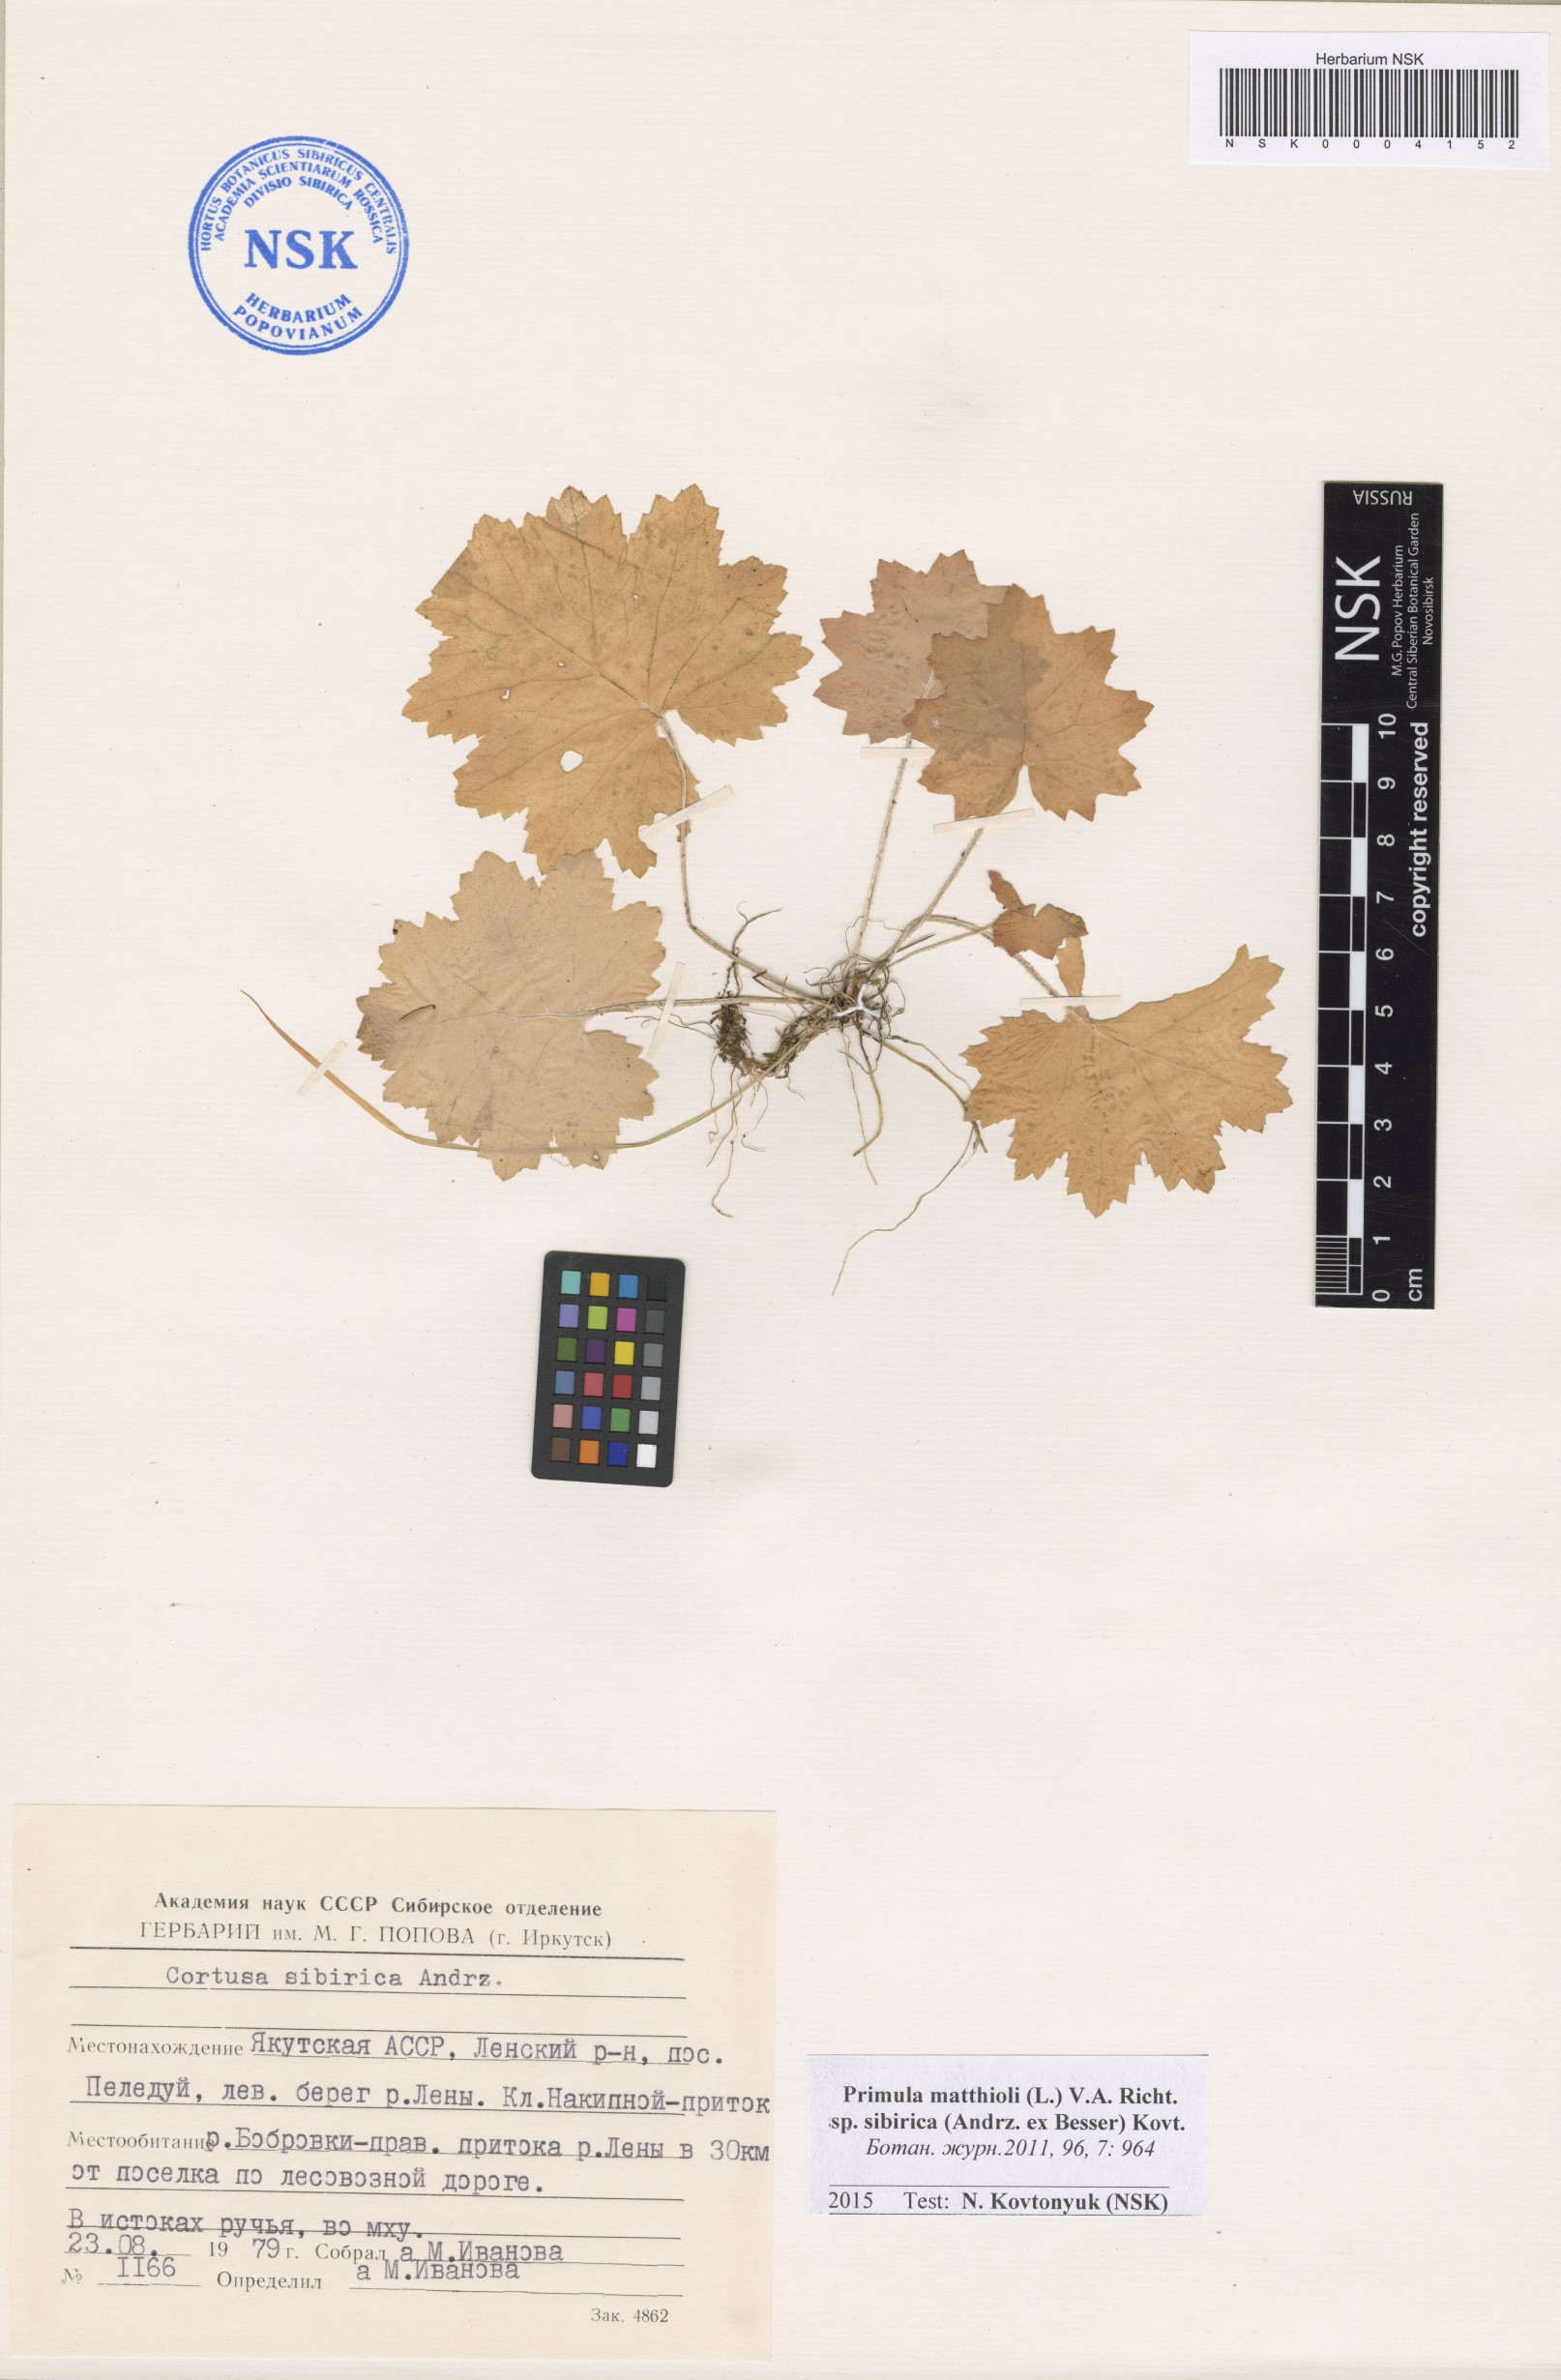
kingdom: Plantae
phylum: Tracheophyta
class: Magnoliopsida
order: Ericales
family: Primulaceae
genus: Primula
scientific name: Primula matthioli
